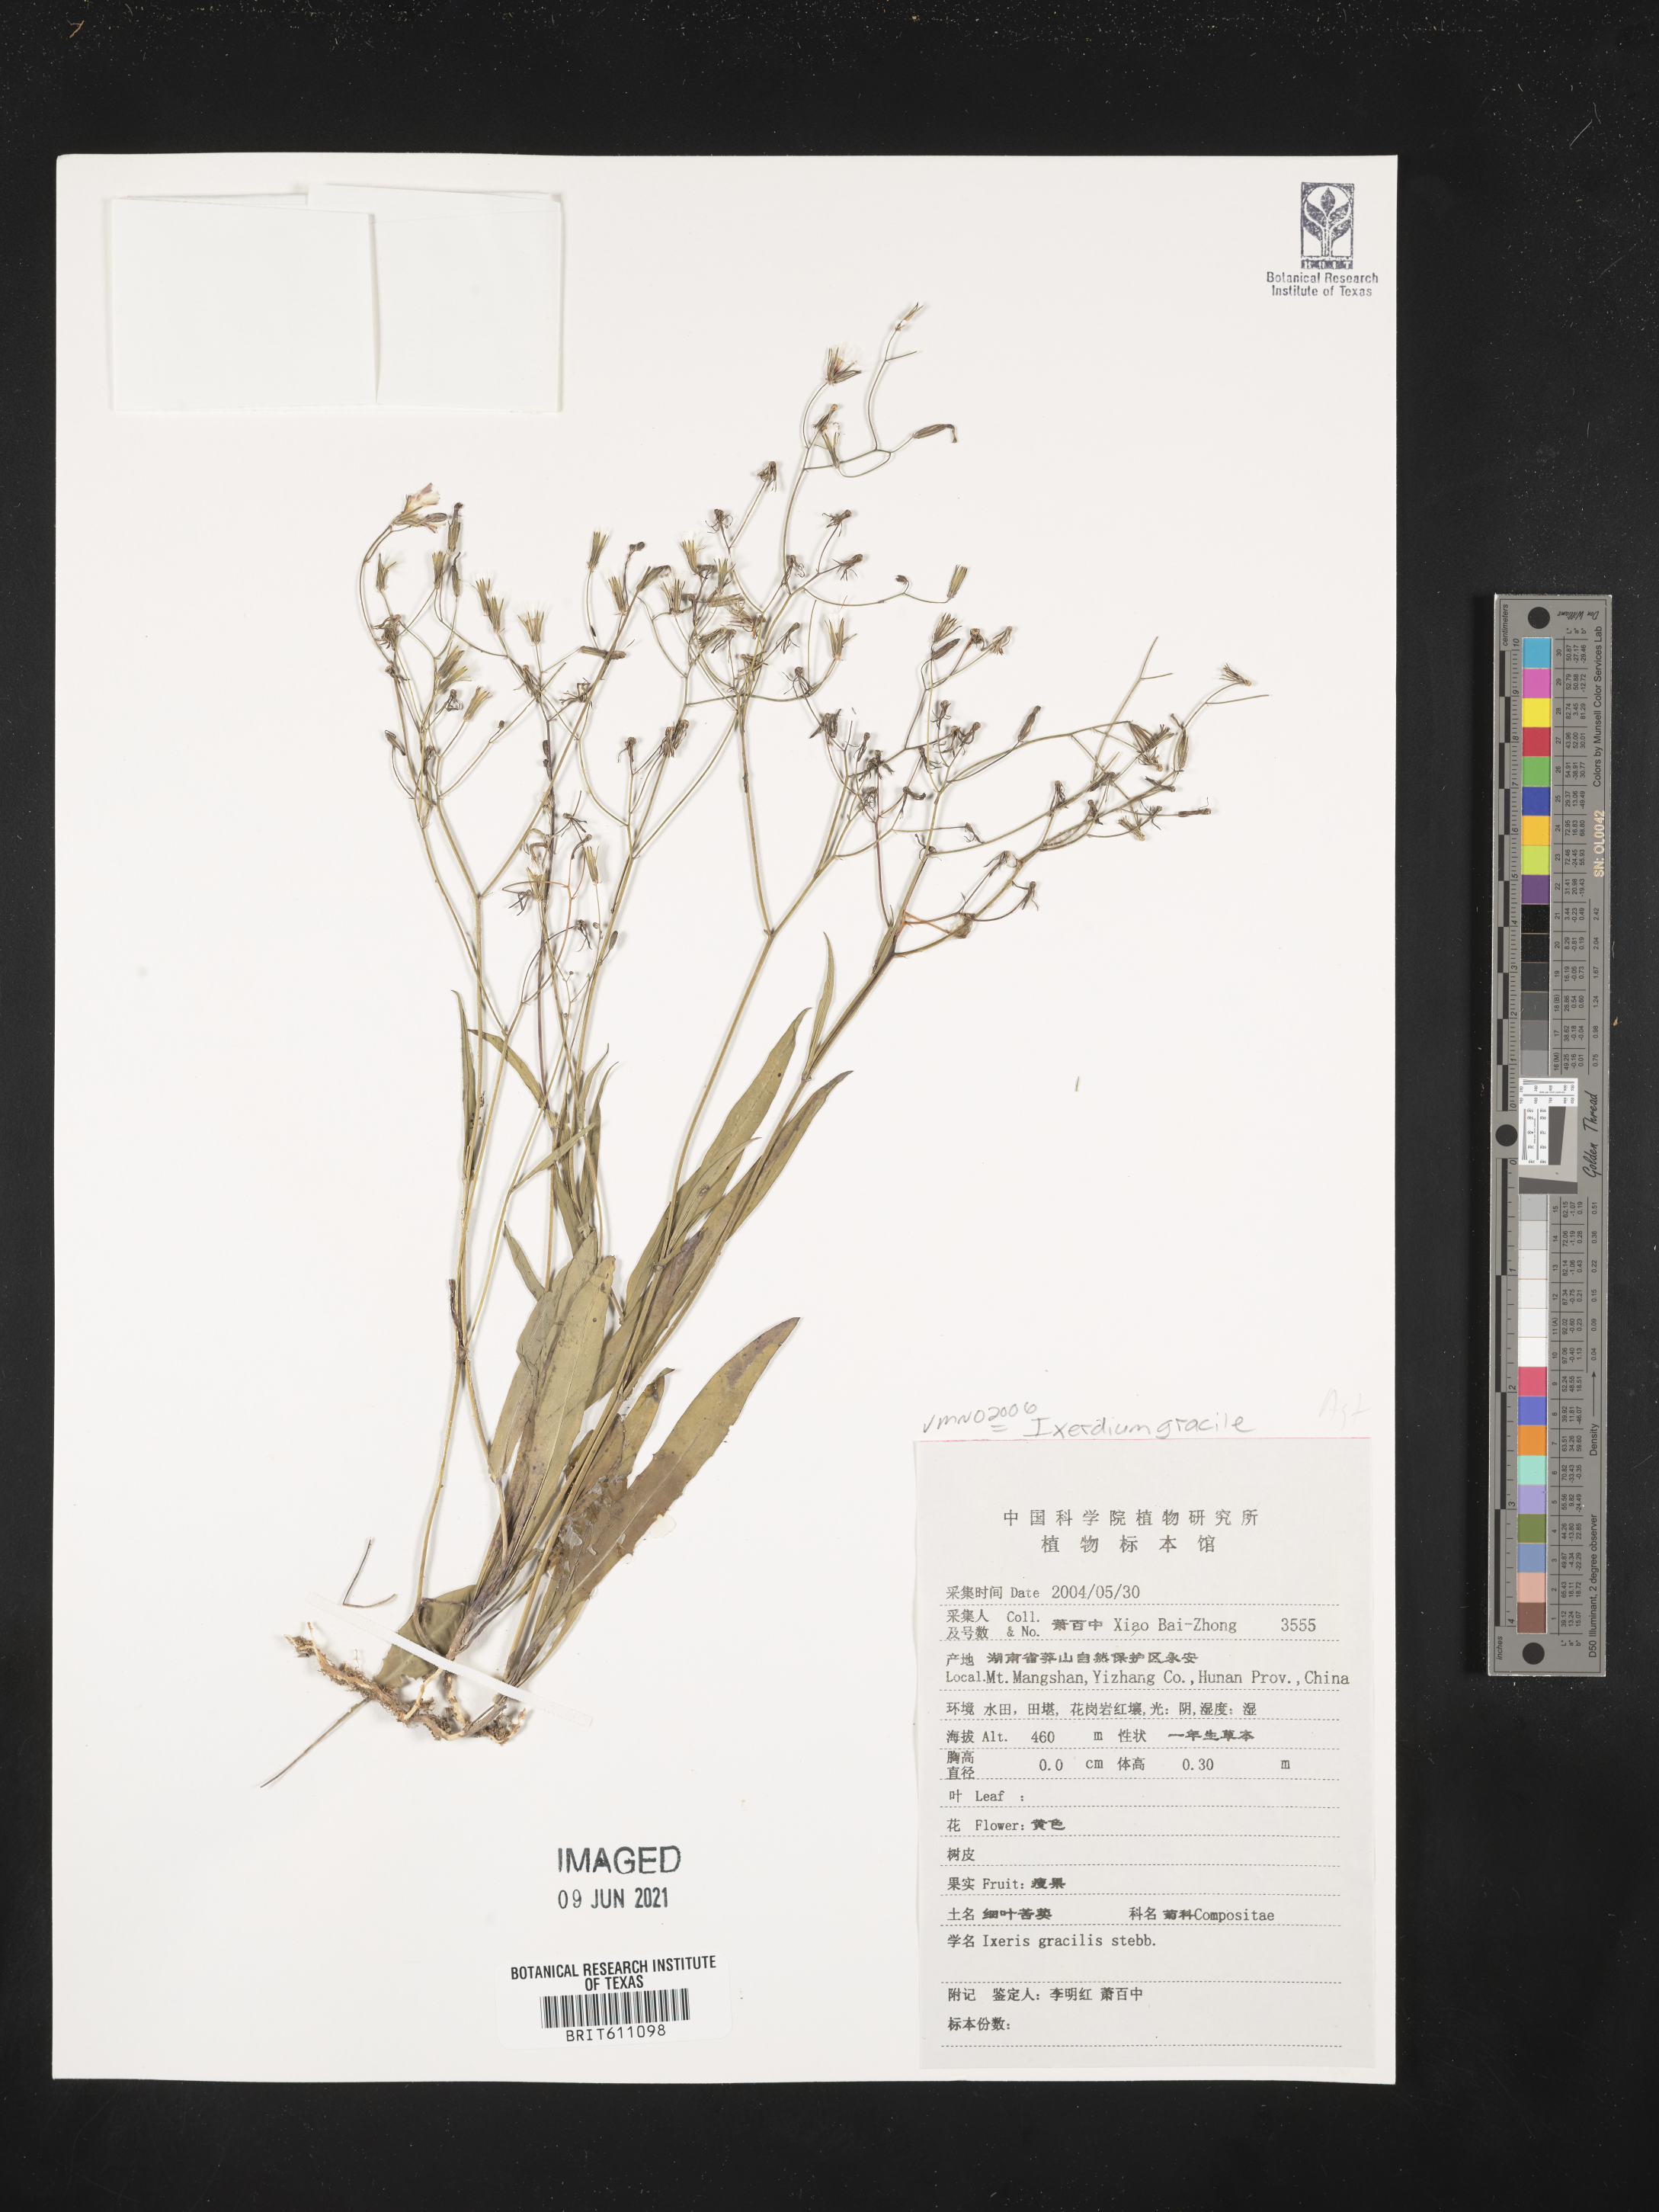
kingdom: Plantae
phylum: Tracheophyta
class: Magnoliopsida
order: Asterales
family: Asteraceae
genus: Ixeridium
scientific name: Ixeridium gracile
